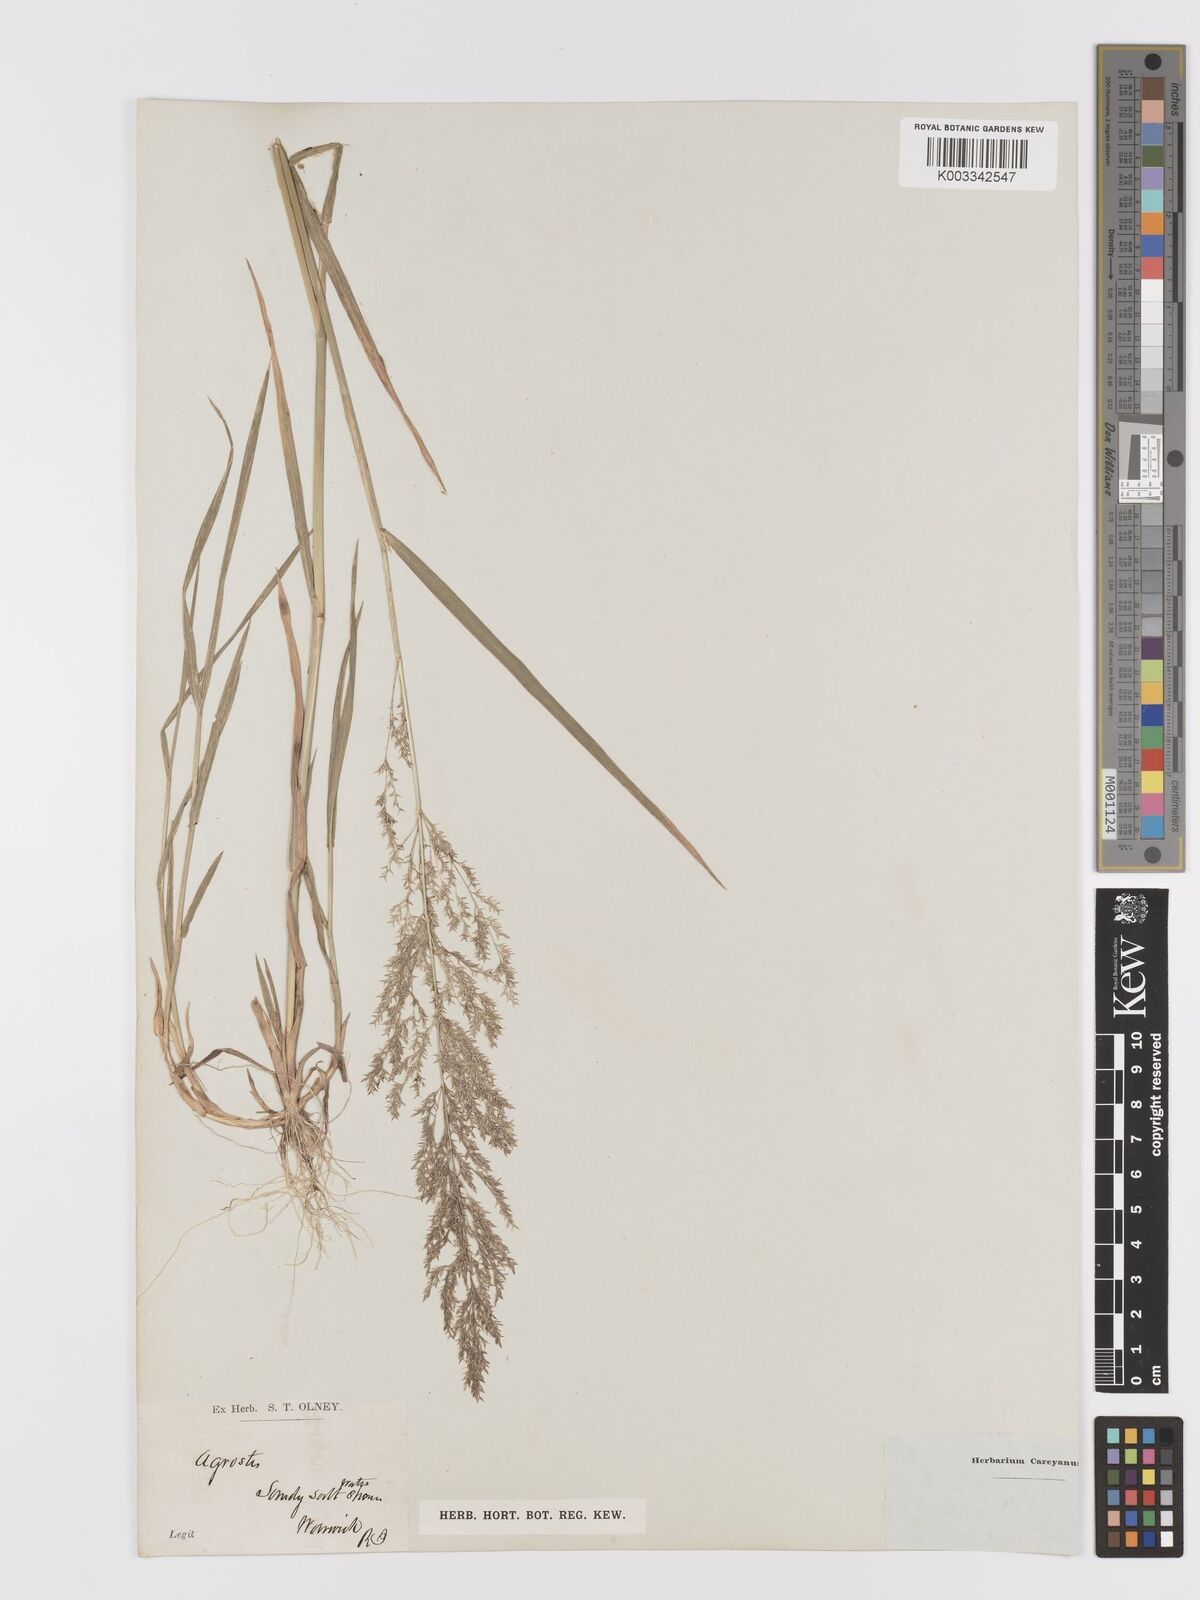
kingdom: Plantae
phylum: Tracheophyta
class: Liliopsida
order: Poales
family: Poaceae
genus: Agrostis
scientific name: Agrostis
